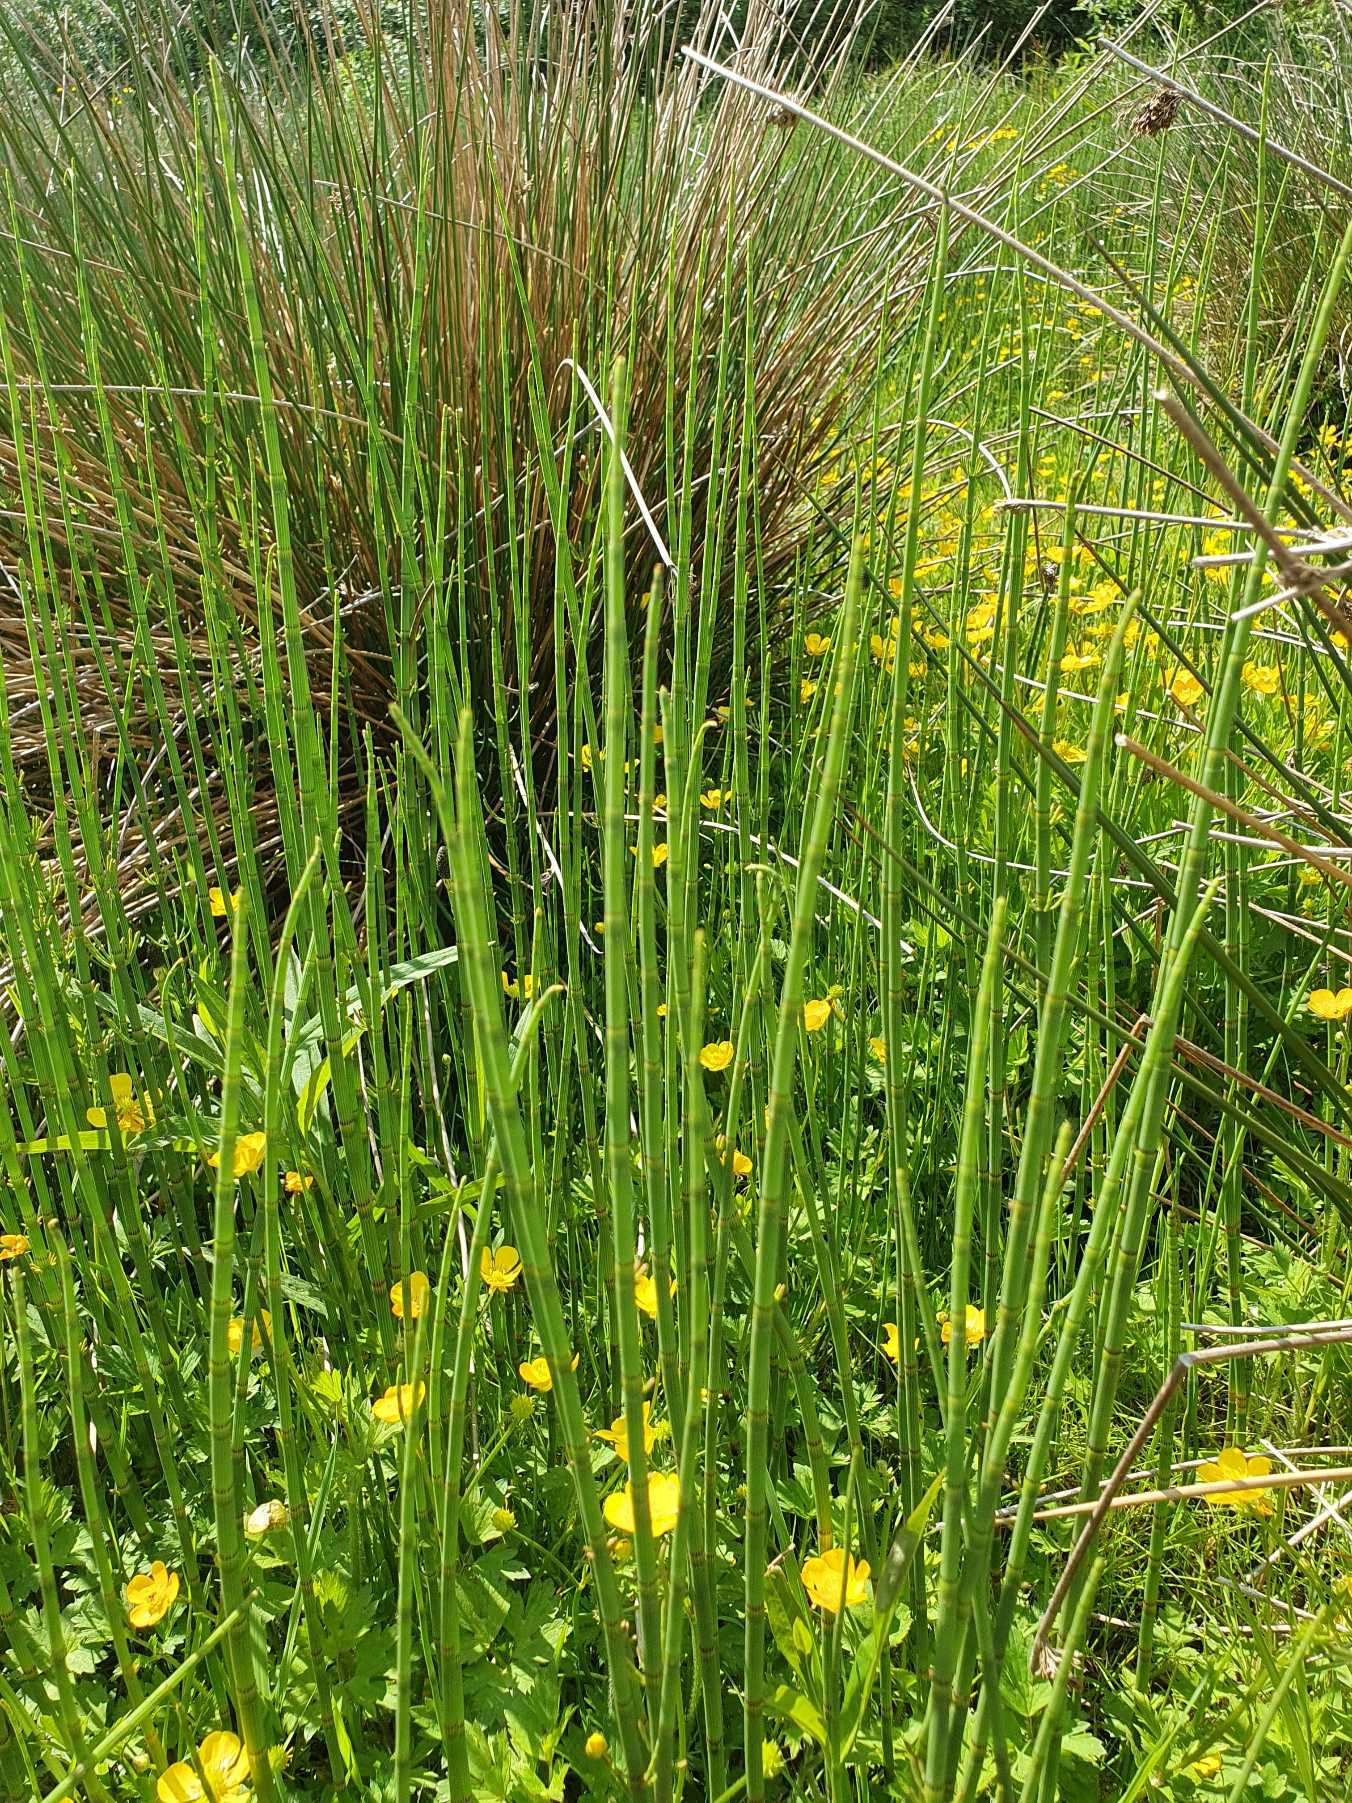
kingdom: Plantae
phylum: Tracheophyta
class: Polypodiopsida
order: Equisetales
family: Equisetaceae
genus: Equisetum
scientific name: Equisetum fluviatile
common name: Dynd-padderok
